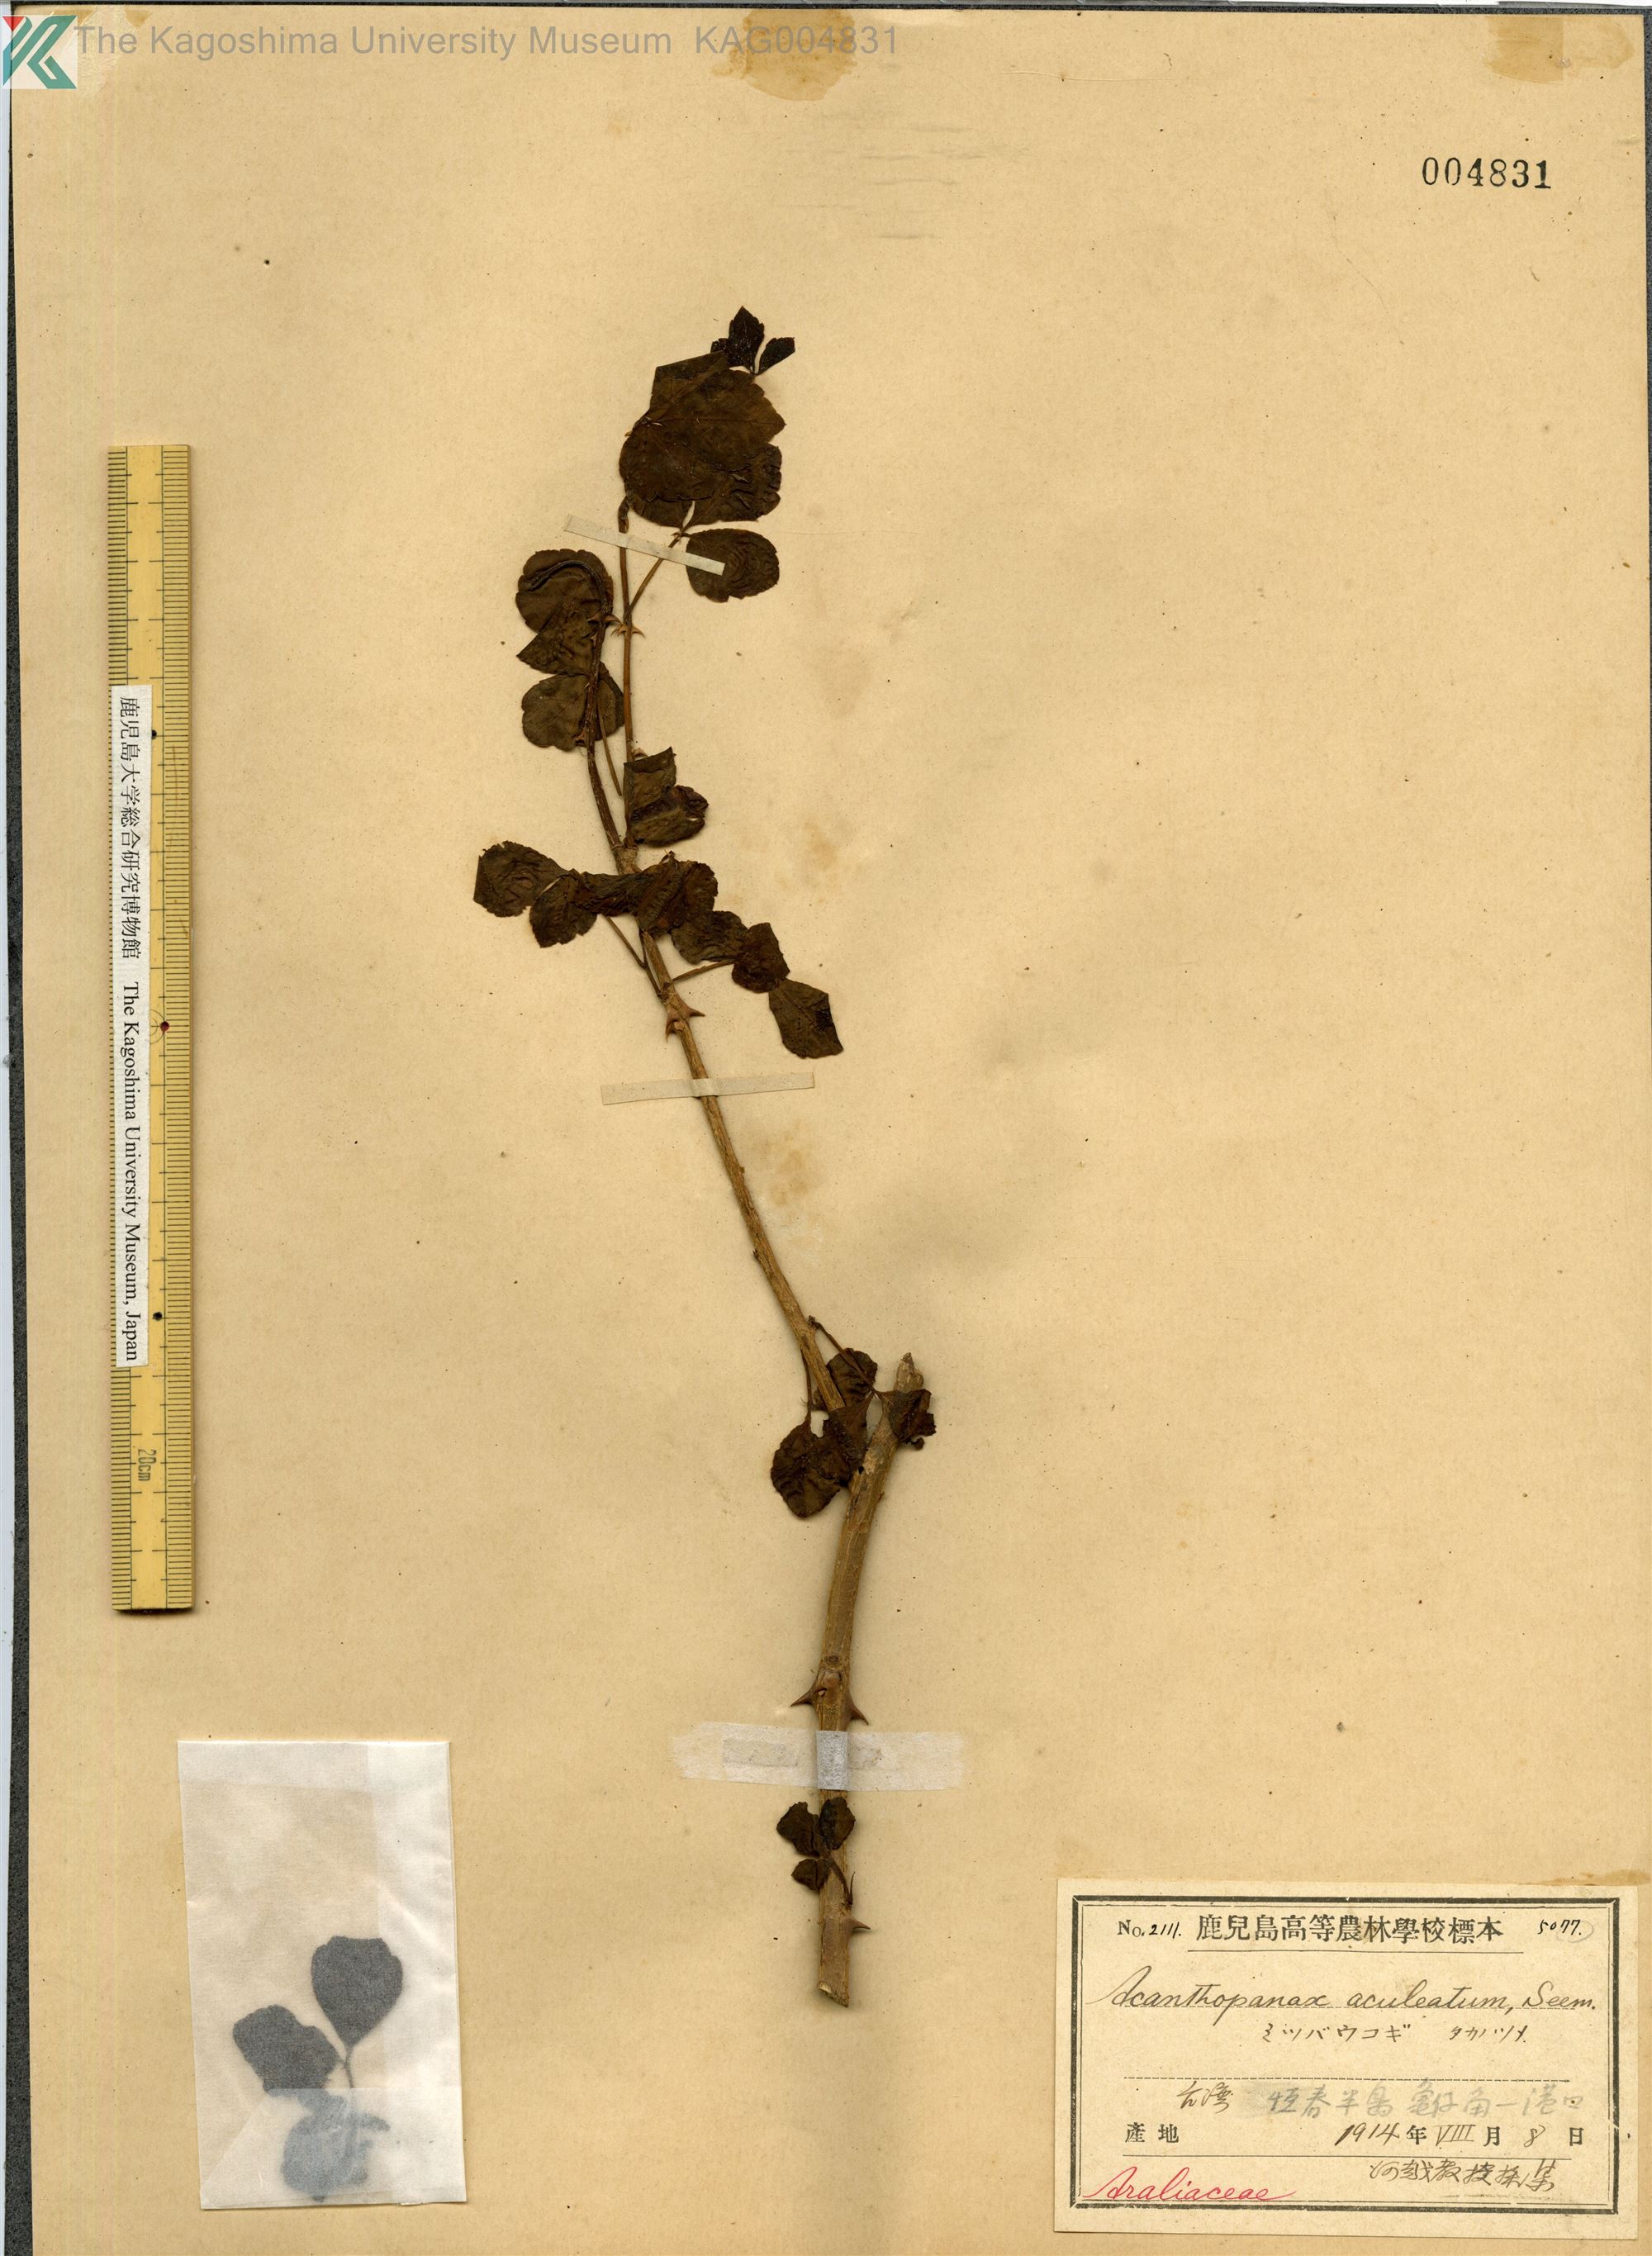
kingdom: Plantae
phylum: Tracheophyta
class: Magnoliopsida
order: Apiales
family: Araliaceae
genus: Eleutherococcus
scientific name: Eleutherococcus trifoliatus
